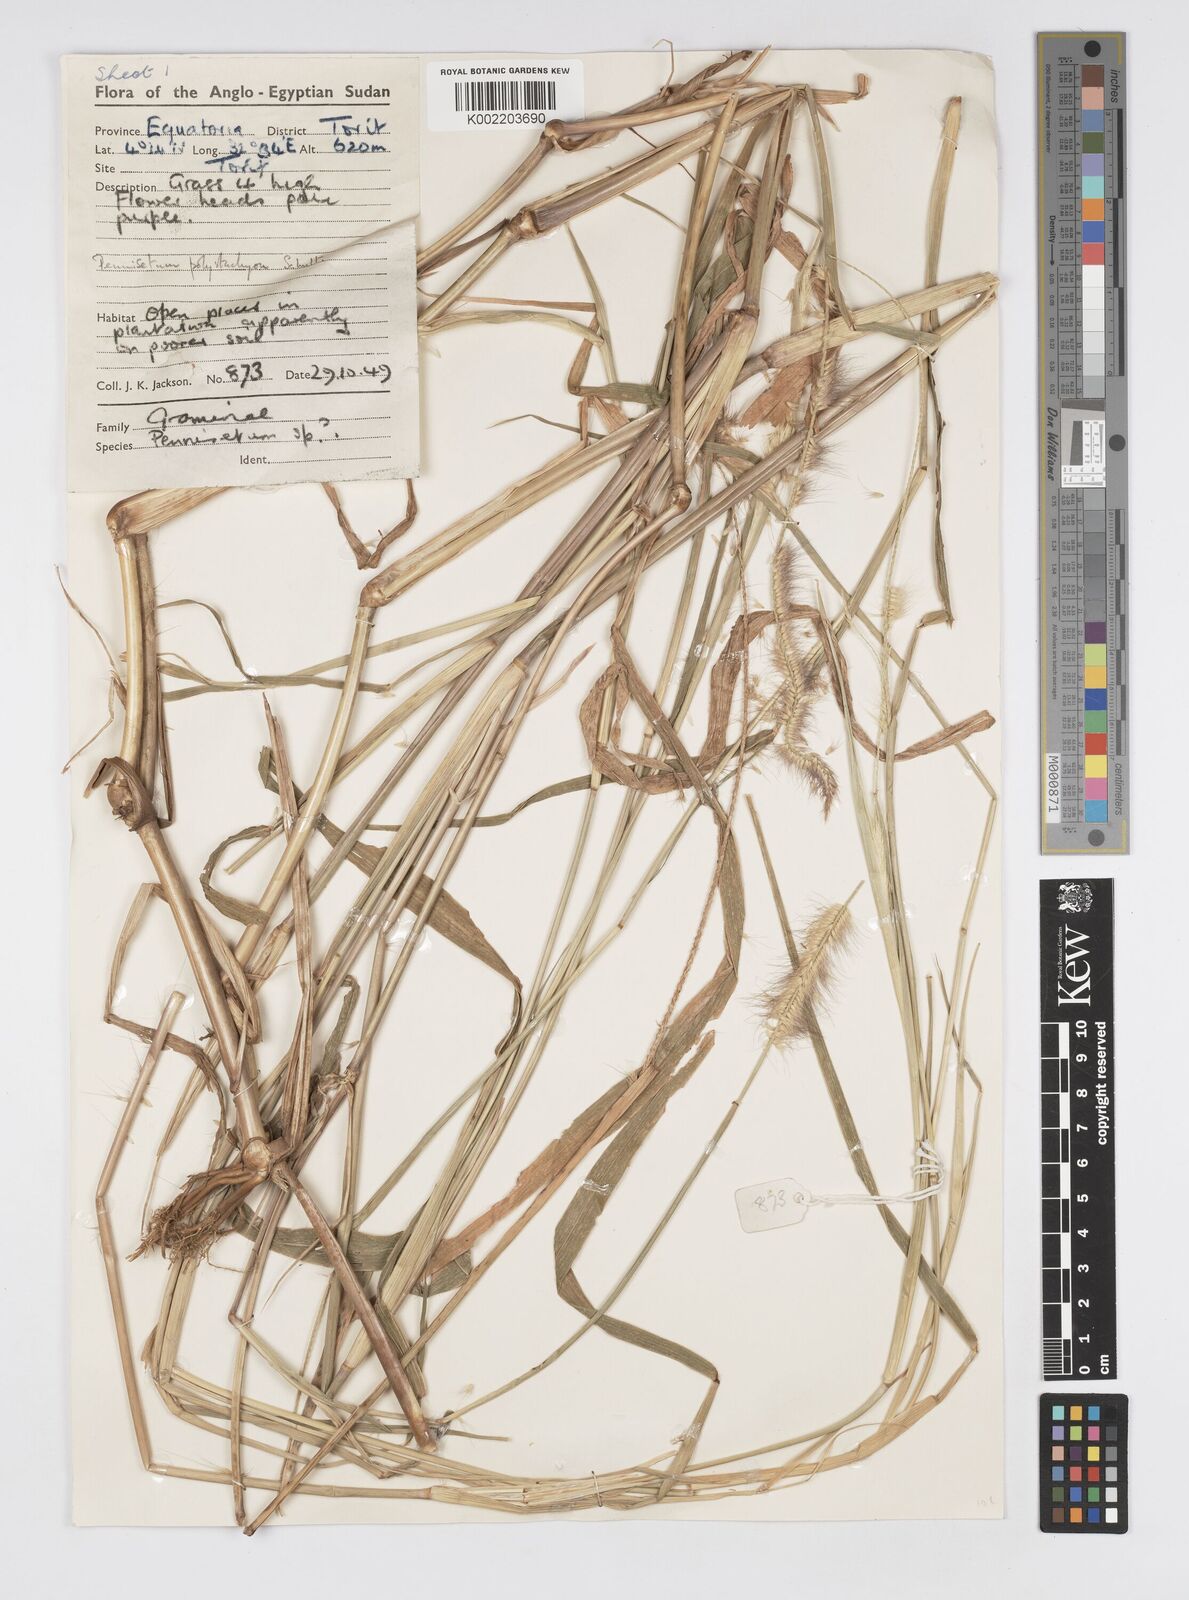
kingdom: Plantae
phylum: Tracheophyta
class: Liliopsida
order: Poales
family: Poaceae
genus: Setaria
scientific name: Setaria parviflora
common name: Knotroot bristle-grass
